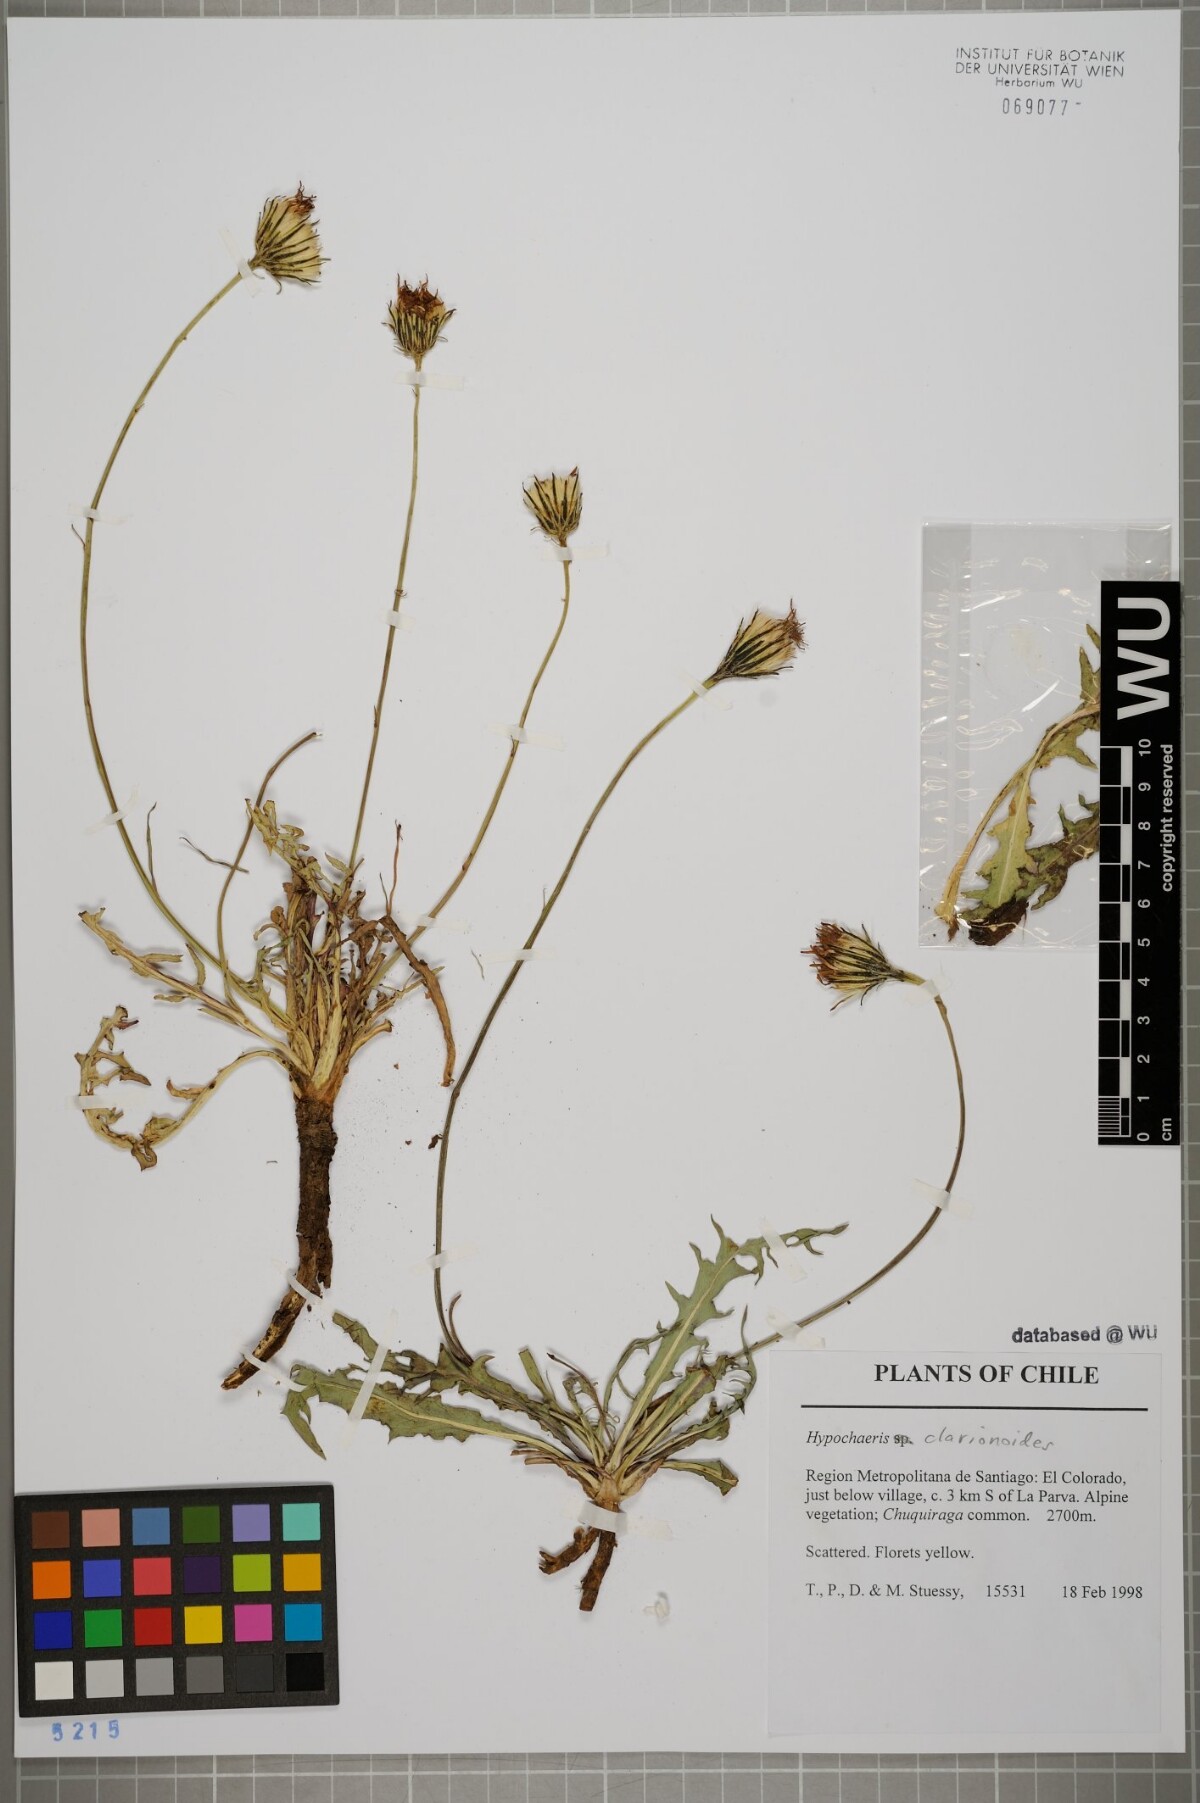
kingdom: Plantae
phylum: Tracheophyta
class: Magnoliopsida
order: Asterales
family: Asteraceae
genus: Hypochaeris
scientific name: Hypochaeris clarionoides
